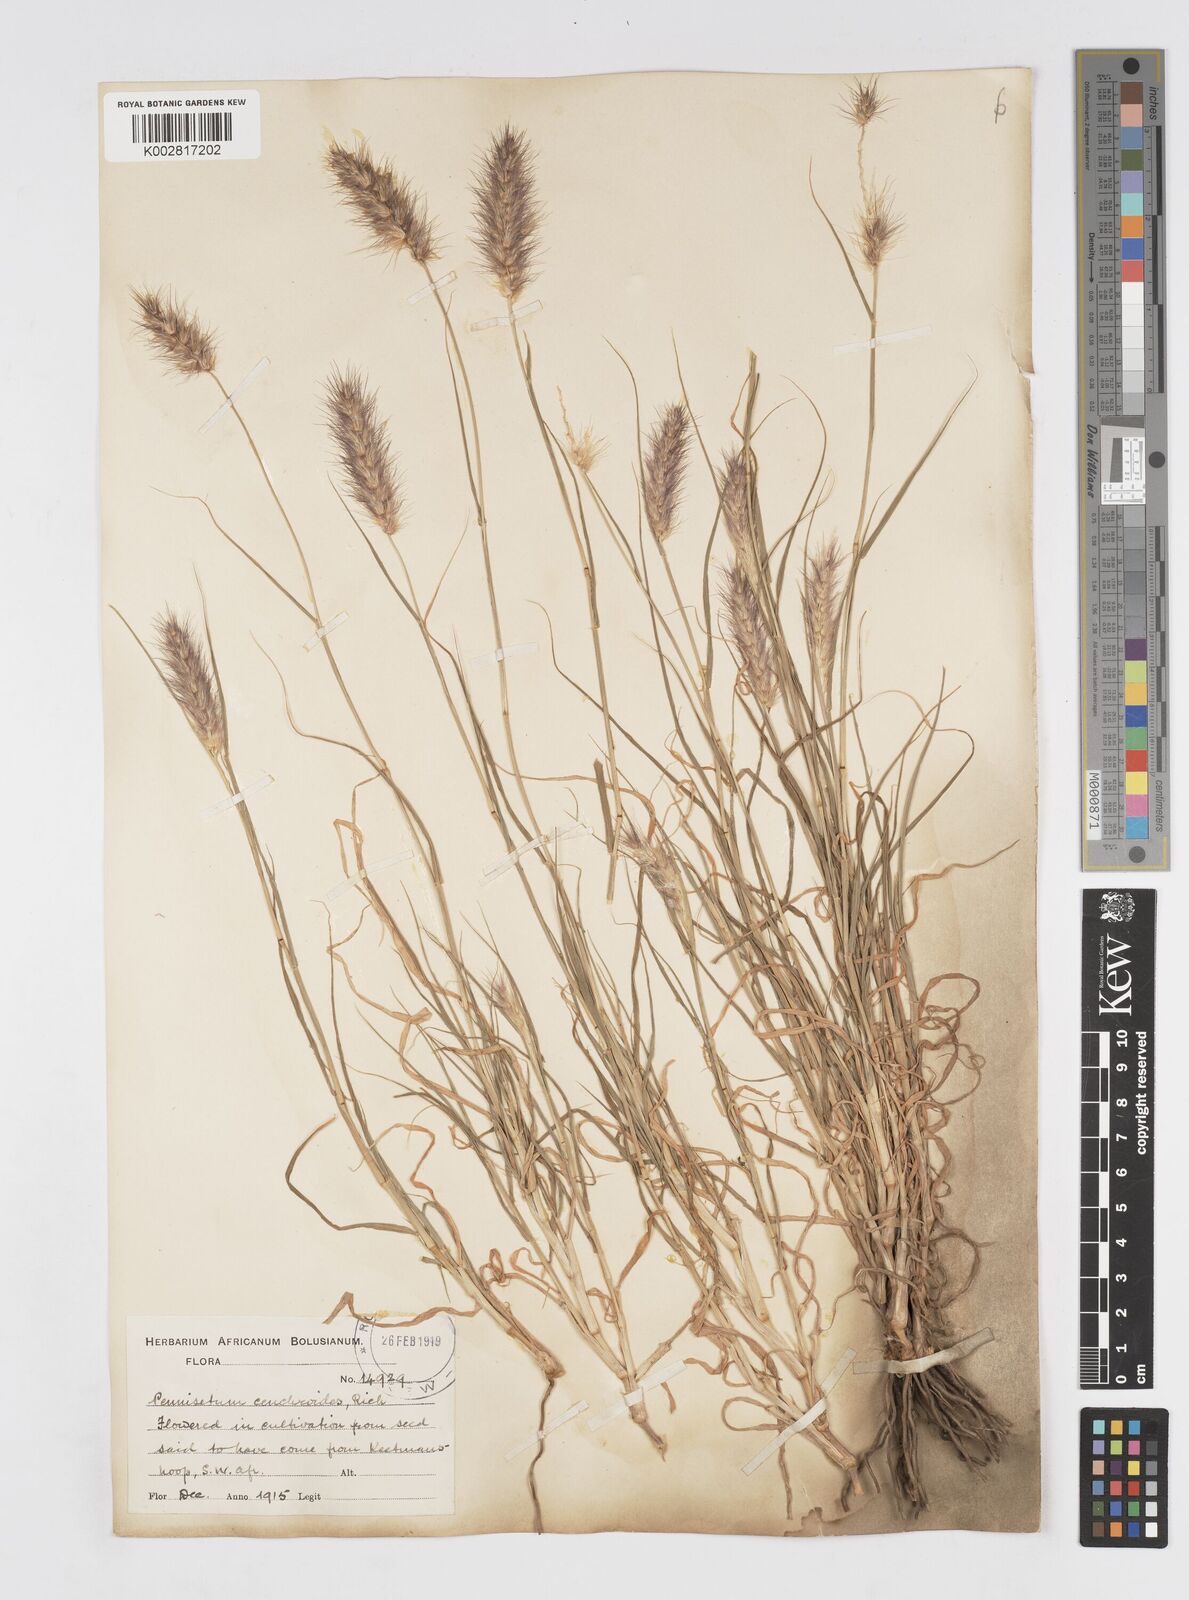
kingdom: Plantae
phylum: Tracheophyta
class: Liliopsida
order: Poales
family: Poaceae
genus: Cenchrus
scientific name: Cenchrus ciliaris
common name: Buffelgrass
